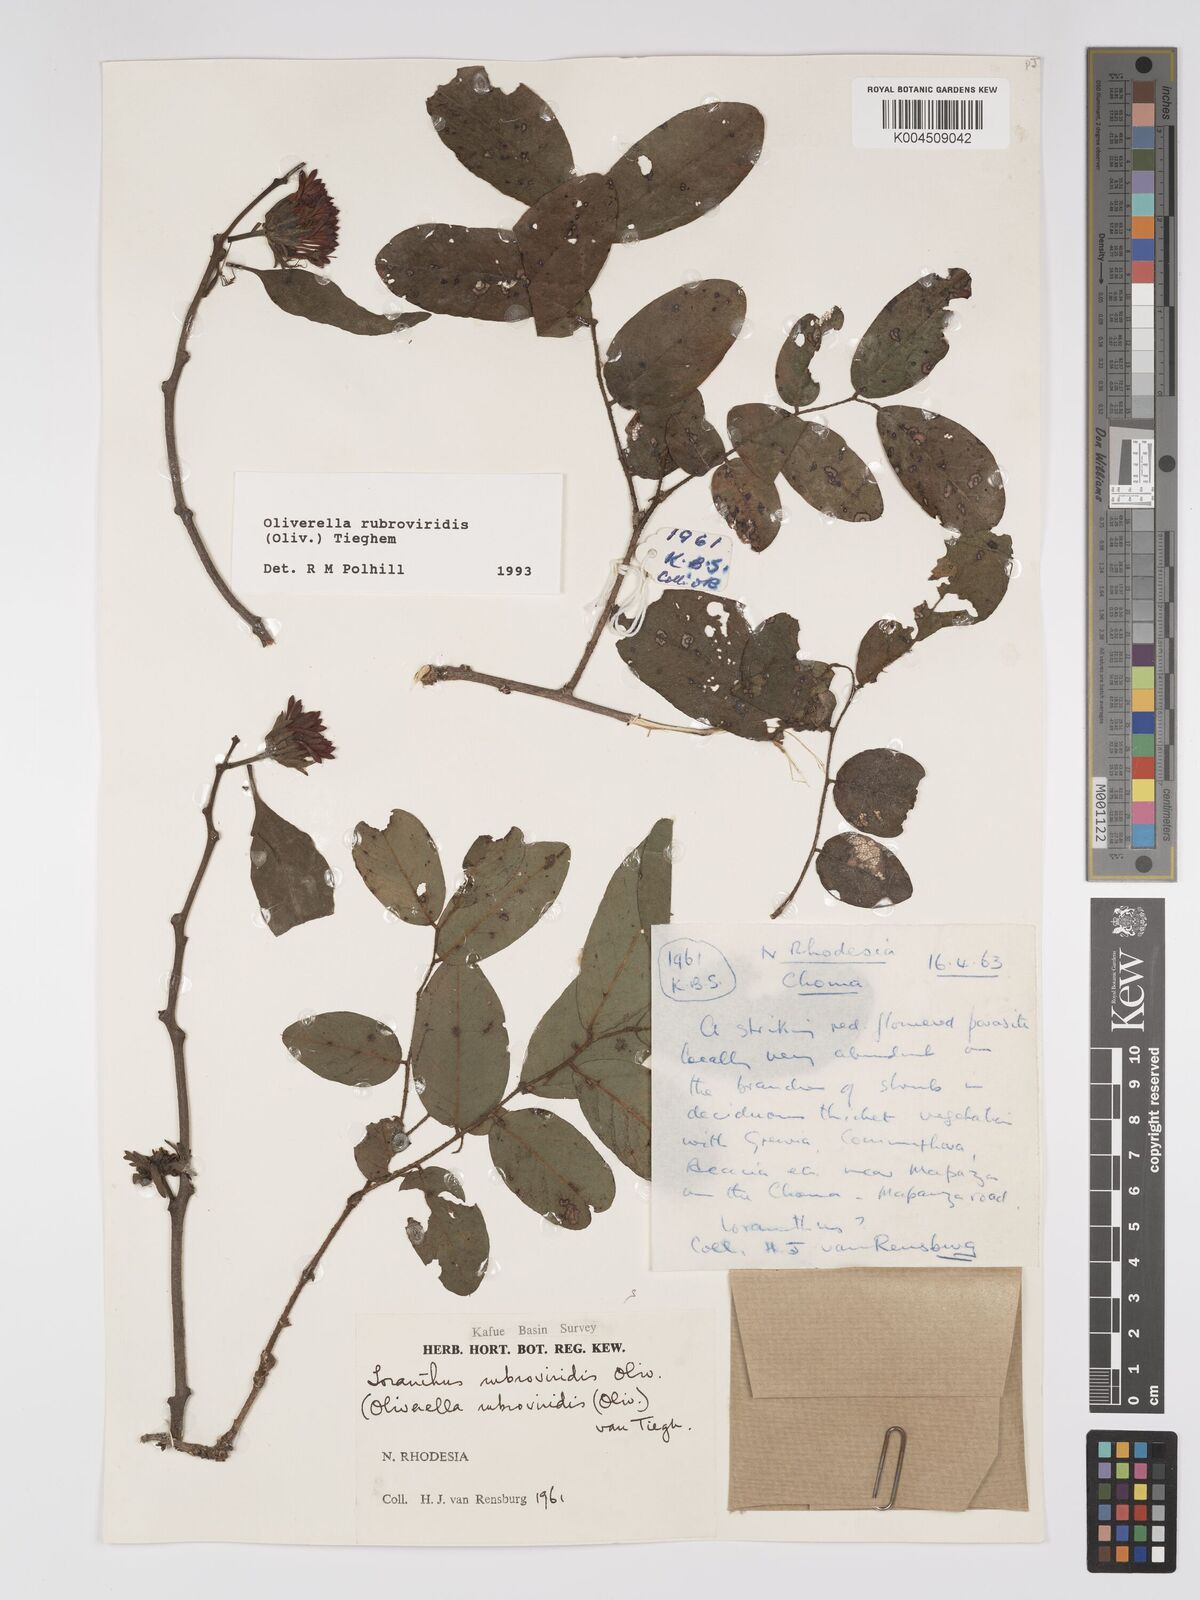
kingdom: Plantae
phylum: Tracheophyta
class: Magnoliopsida
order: Santalales
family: Loranthaceae
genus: Oliverella
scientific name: Oliverella rubroviridis
